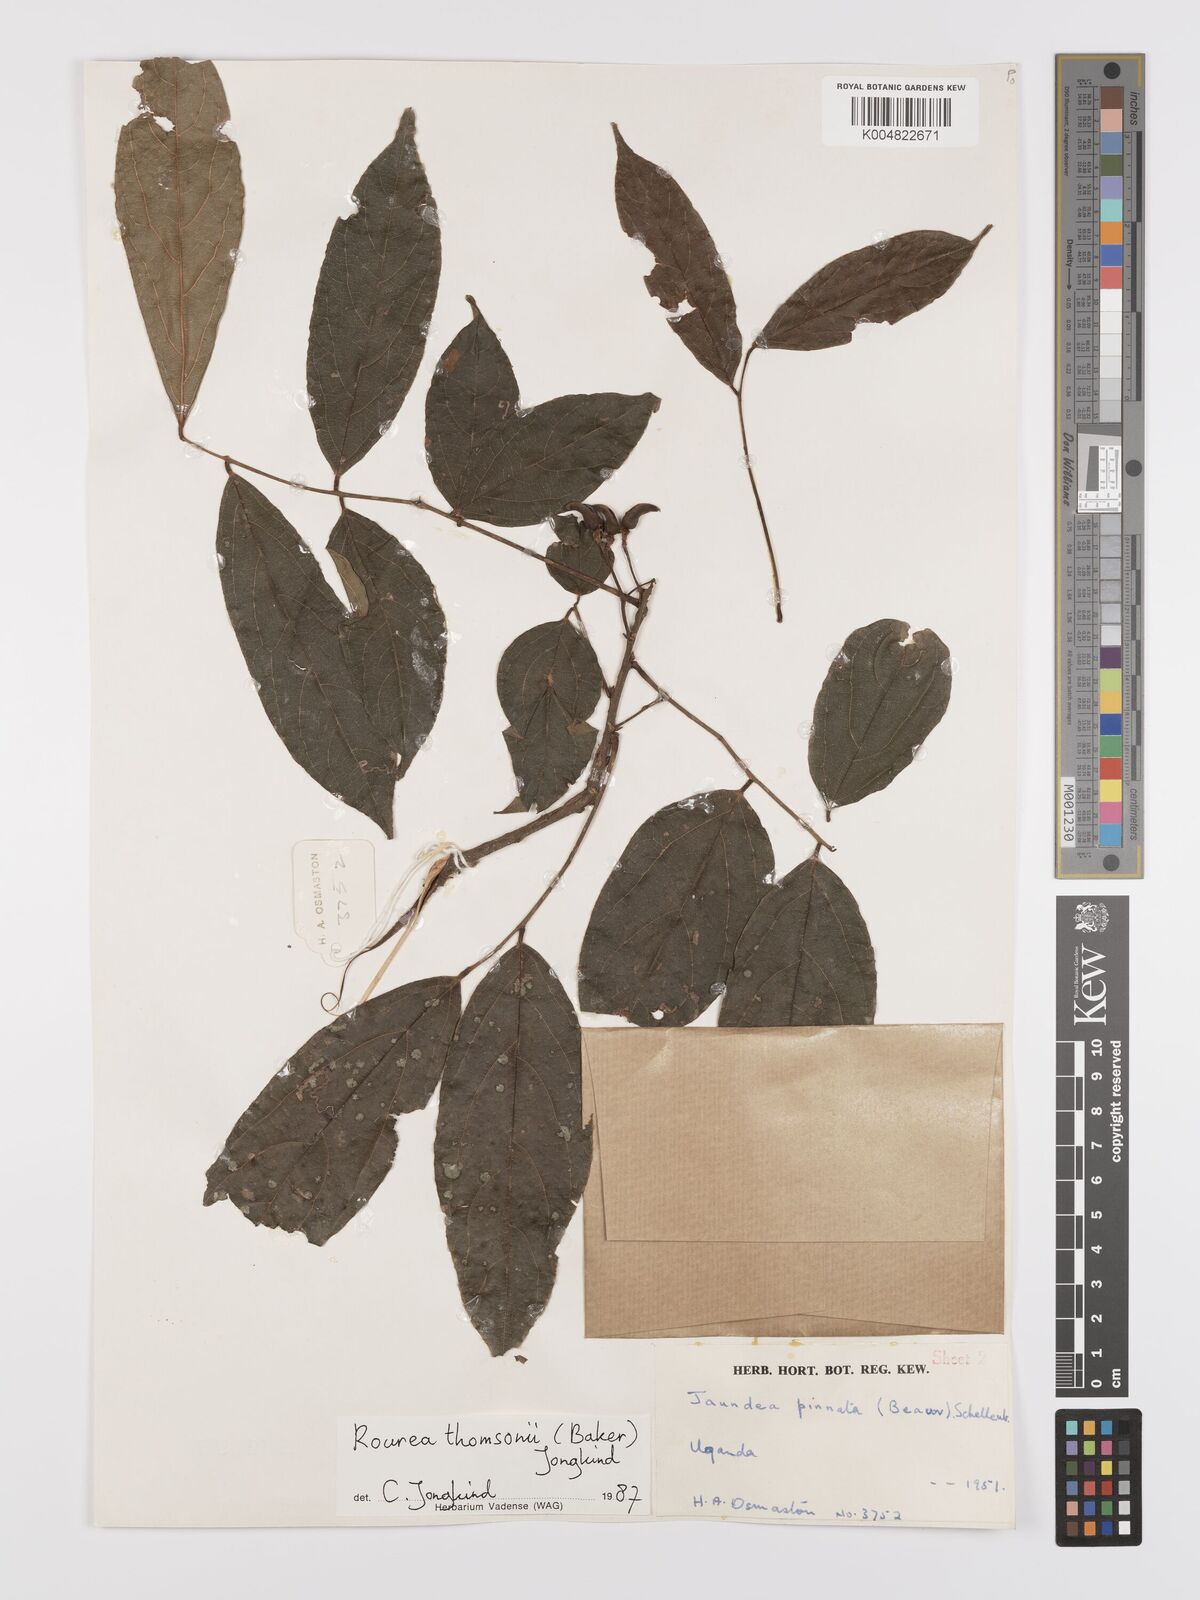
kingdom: Plantae
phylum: Tracheophyta
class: Magnoliopsida
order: Oxalidales
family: Connaraceae
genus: Rourea
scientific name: Rourea pinnata
